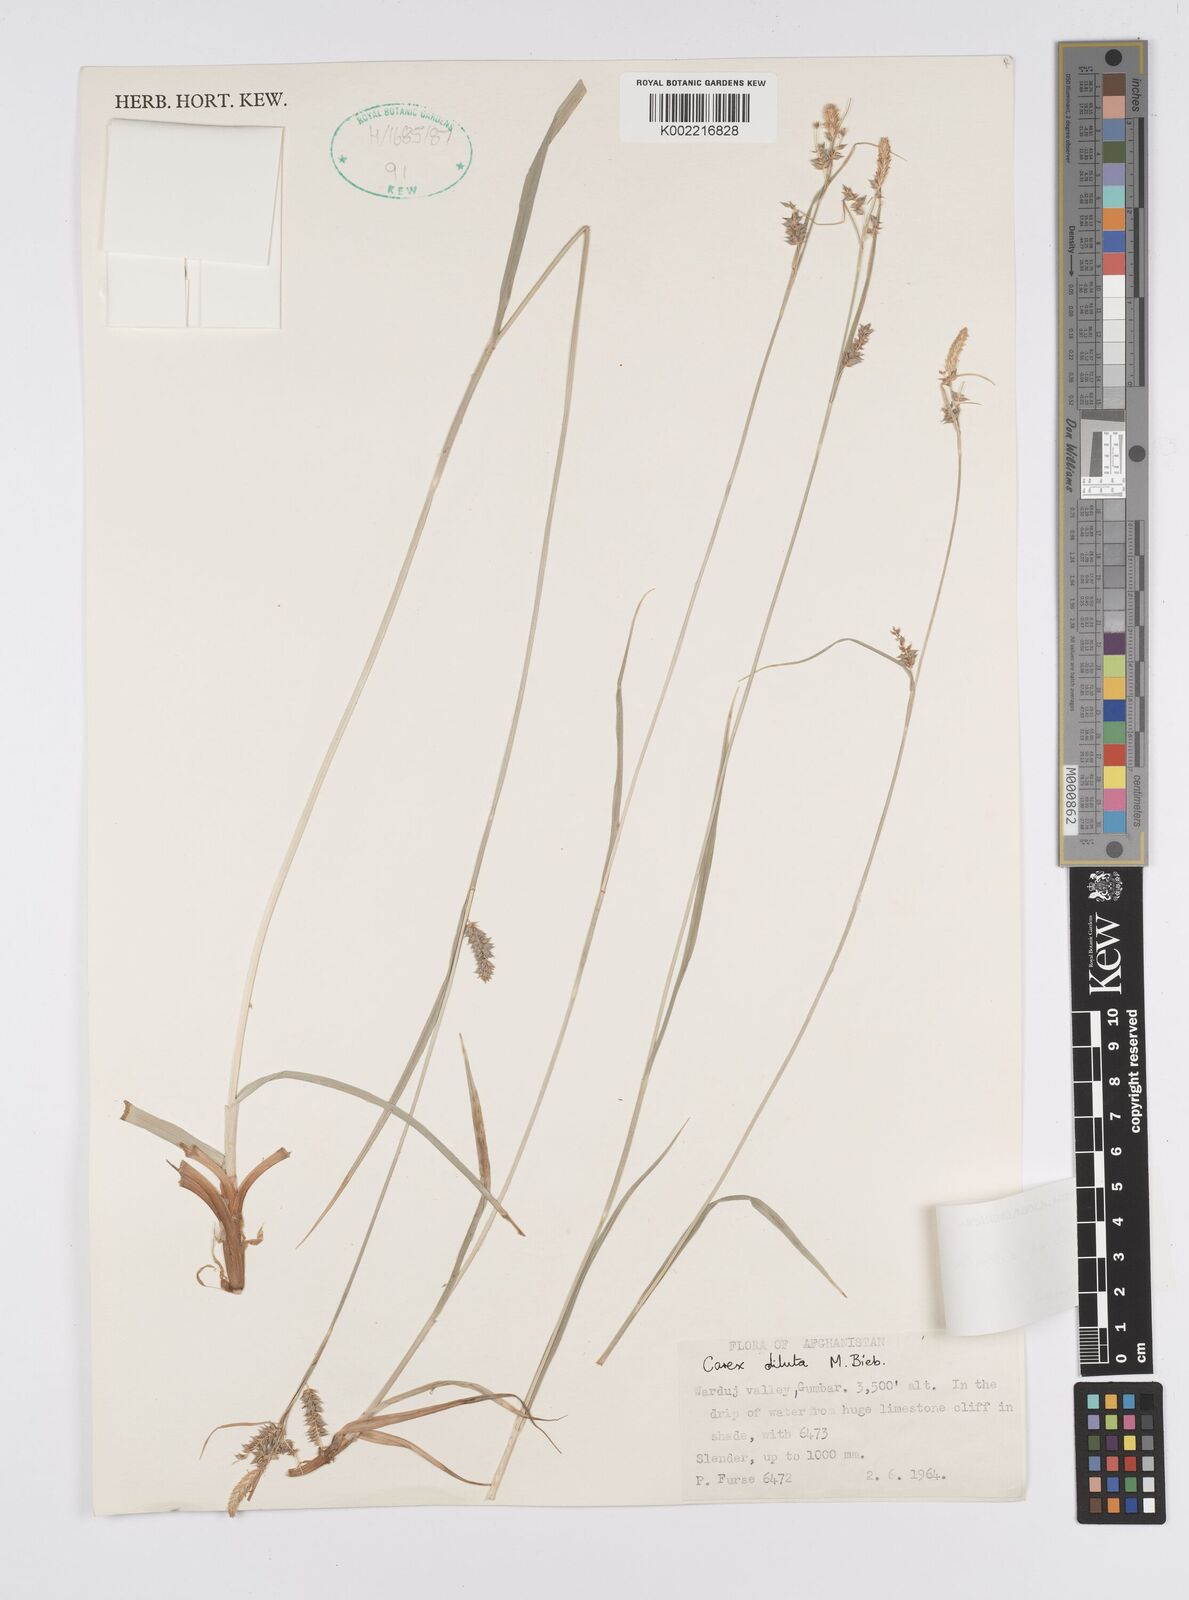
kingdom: Plantae
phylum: Tracheophyta
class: Liliopsida
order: Poales
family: Cyperaceae
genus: Carex
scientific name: Carex diluta
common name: Sedge
